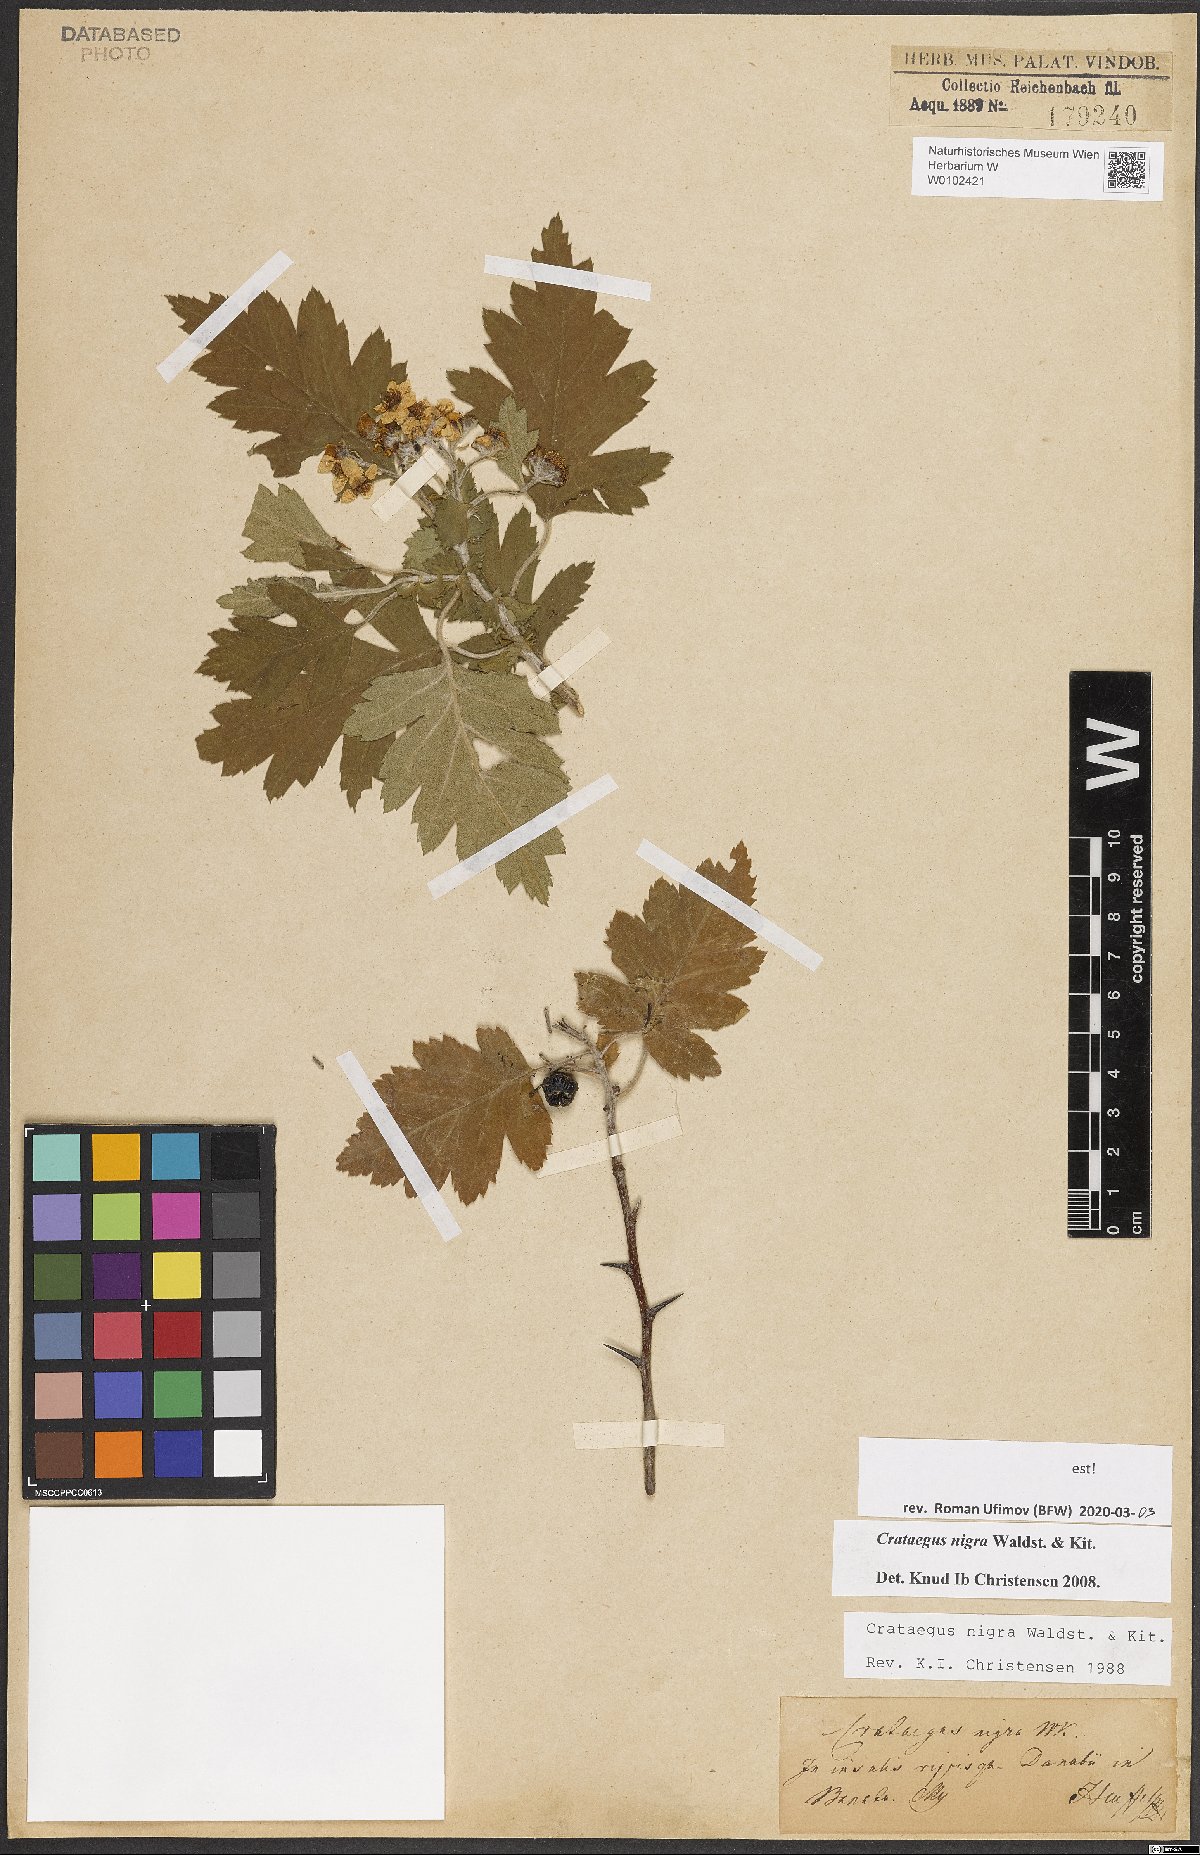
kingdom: Plantae
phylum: Tracheophyta
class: Magnoliopsida
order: Rosales
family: Rosaceae
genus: Crataegus
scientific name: Crataegus nigra
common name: Hungarian thorn
